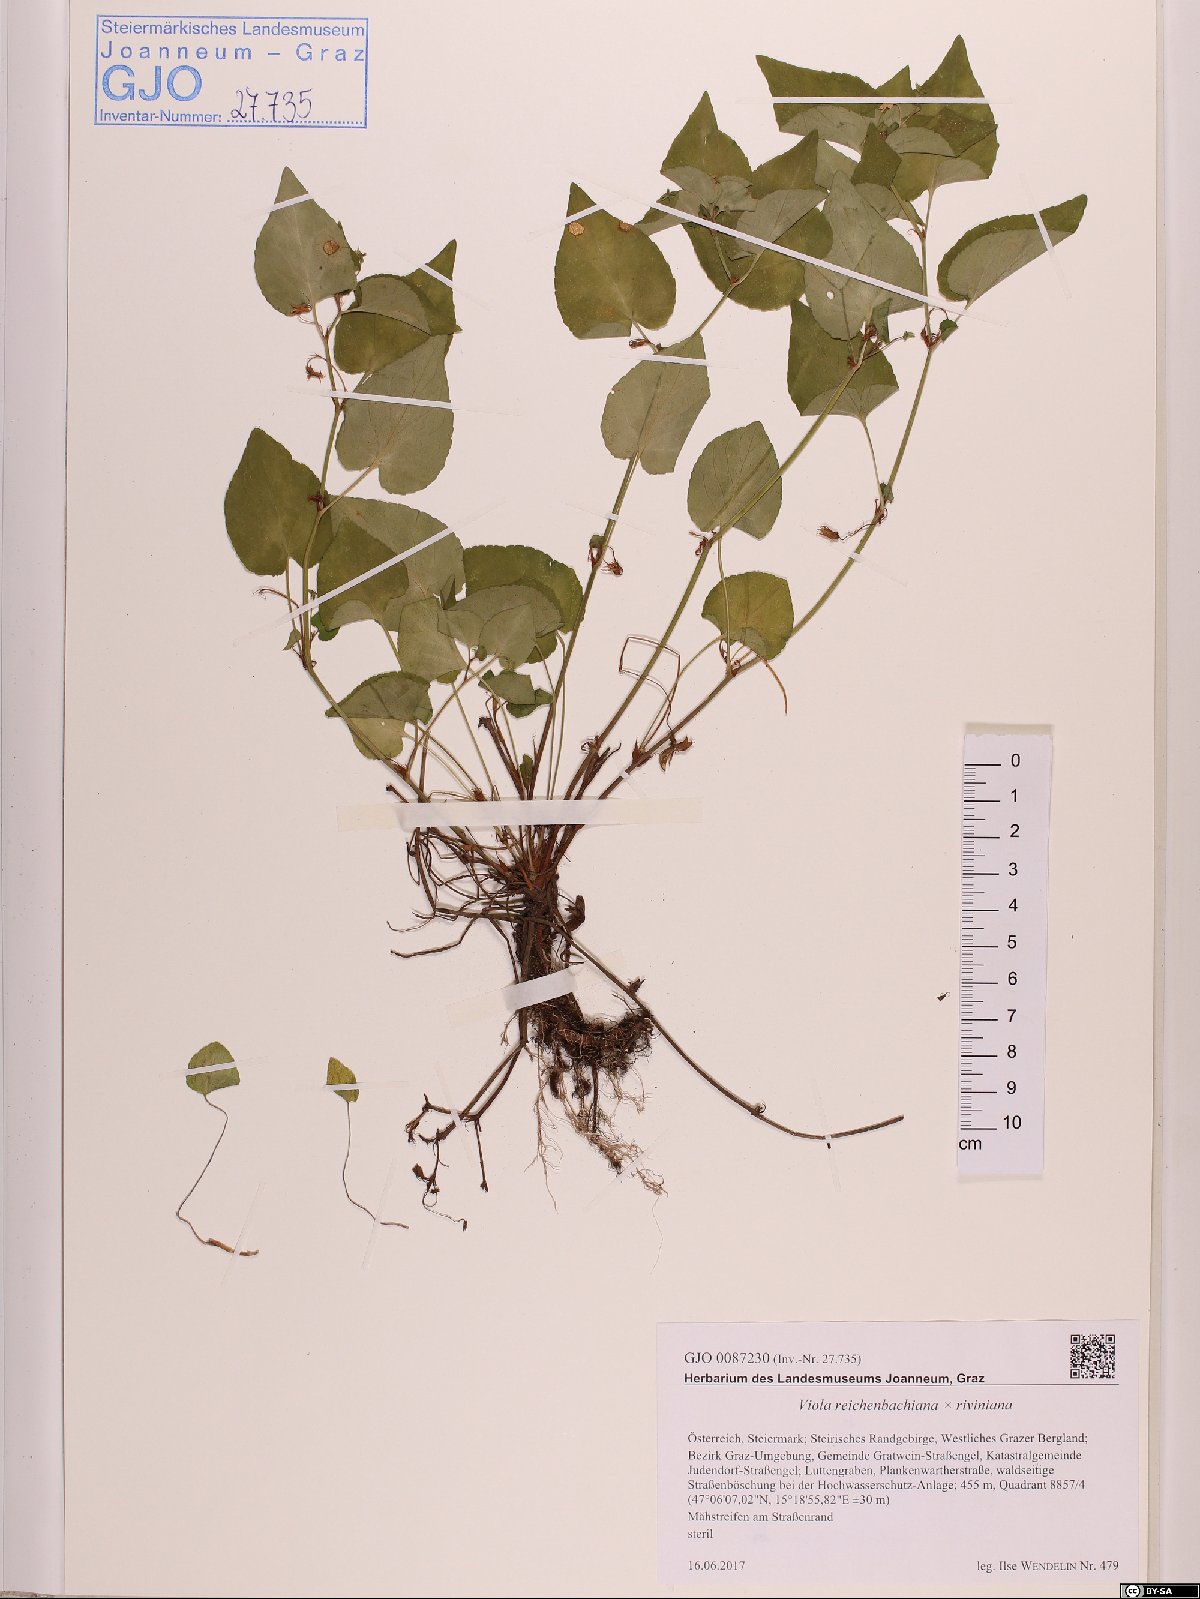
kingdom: Plantae
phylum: Tracheophyta
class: Magnoliopsida
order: Malpighiales
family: Violaceae
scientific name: Violaceae
